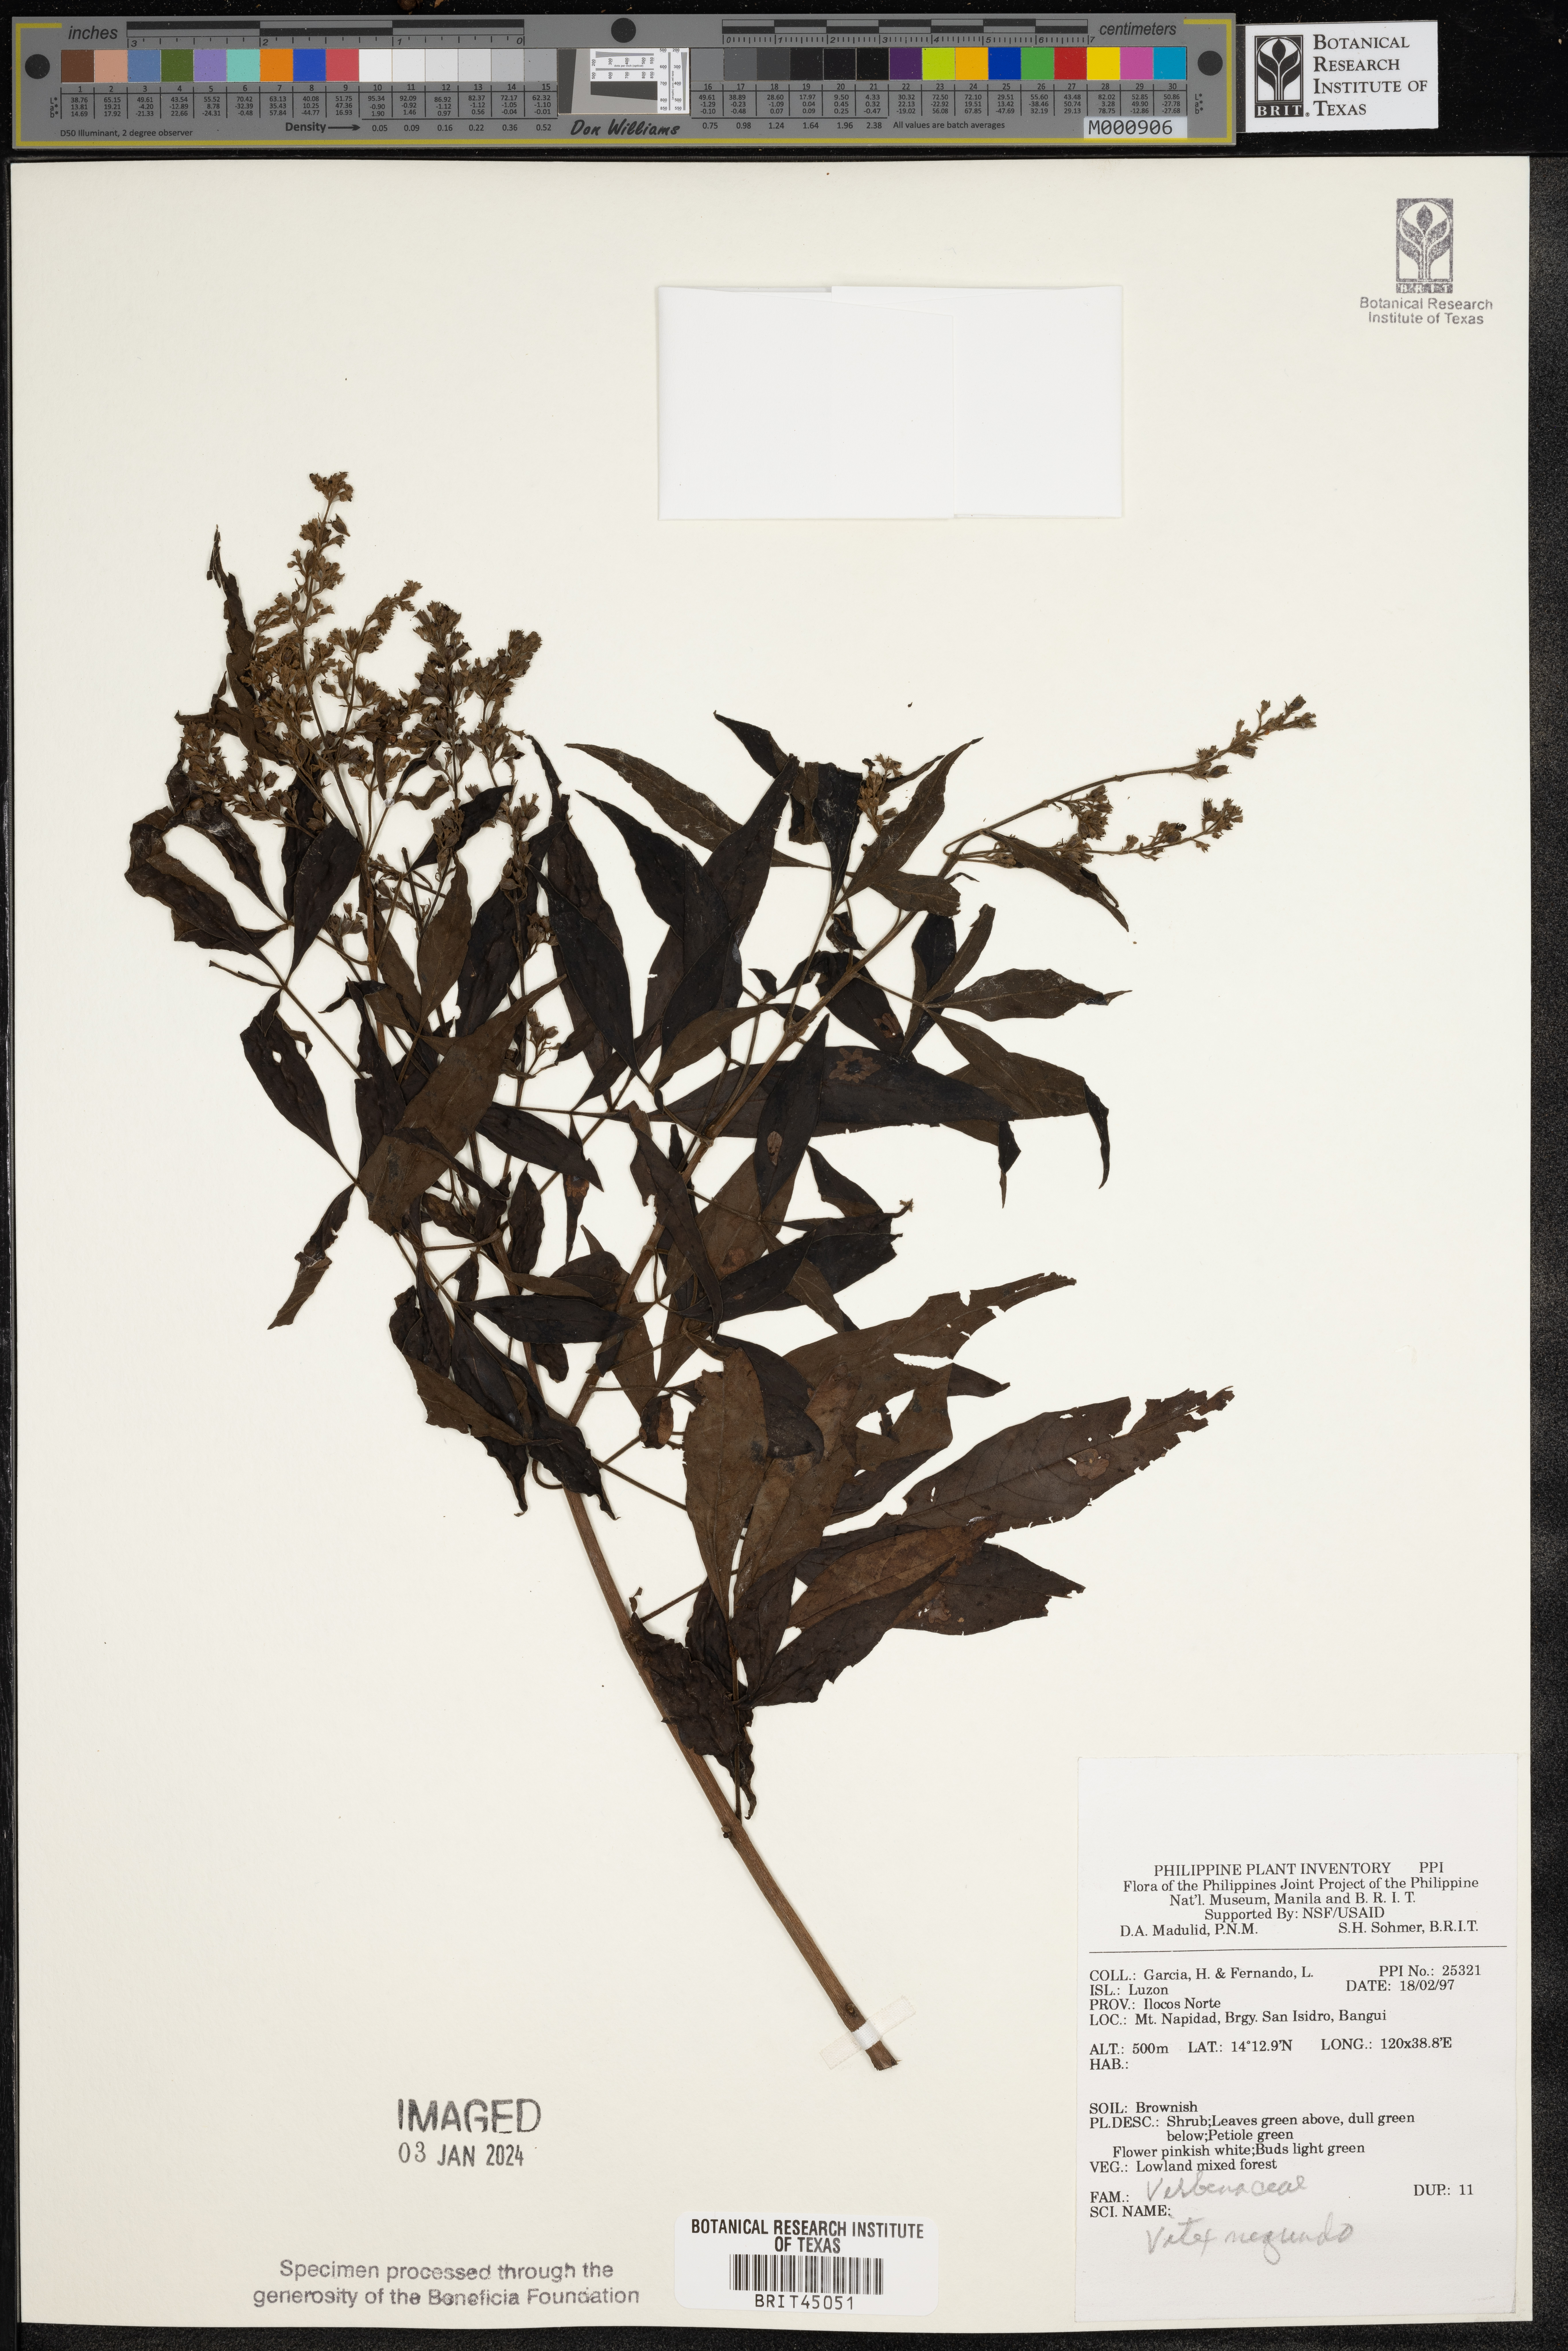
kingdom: Plantae
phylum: Tracheophyta
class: Magnoliopsida
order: Lamiales
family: Lamiaceae
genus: Vitex
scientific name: Vitex negundo
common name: Chinese chastetree
